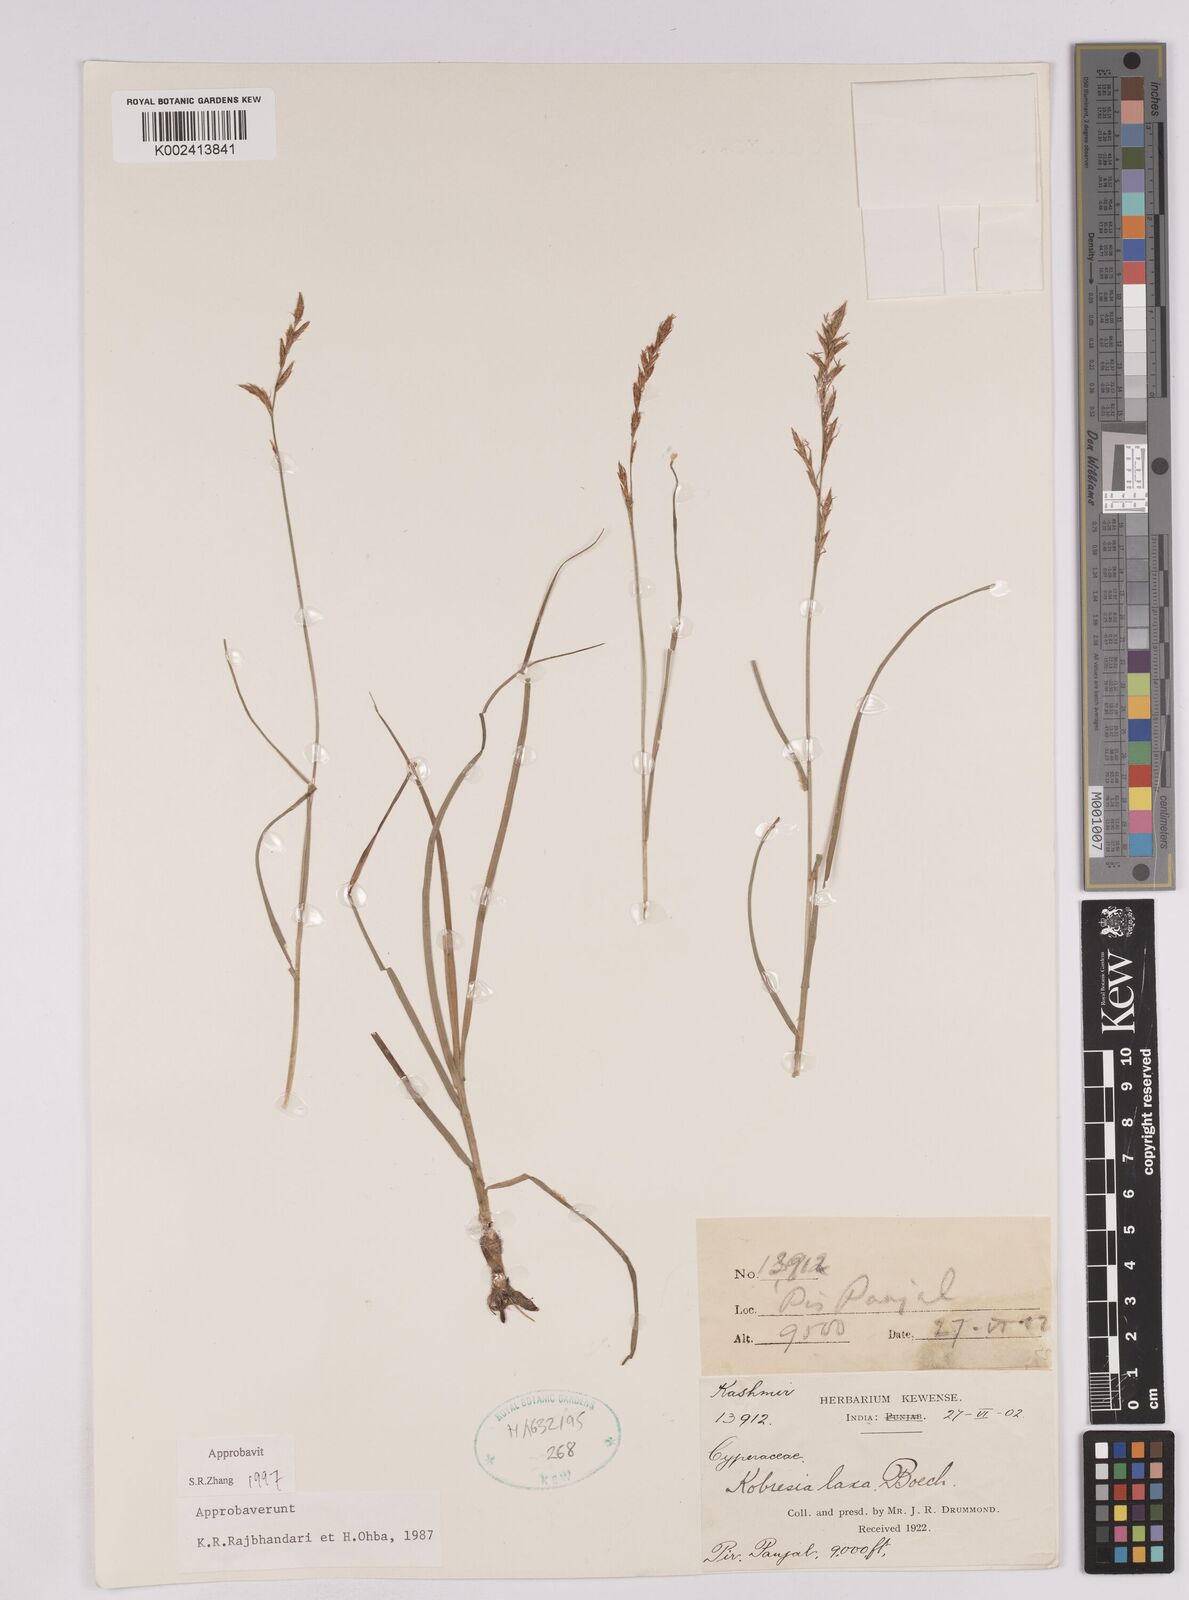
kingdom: Plantae
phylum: Tracheophyta
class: Liliopsida
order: Poales
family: Cyperaceae
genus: Carex
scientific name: Carex
